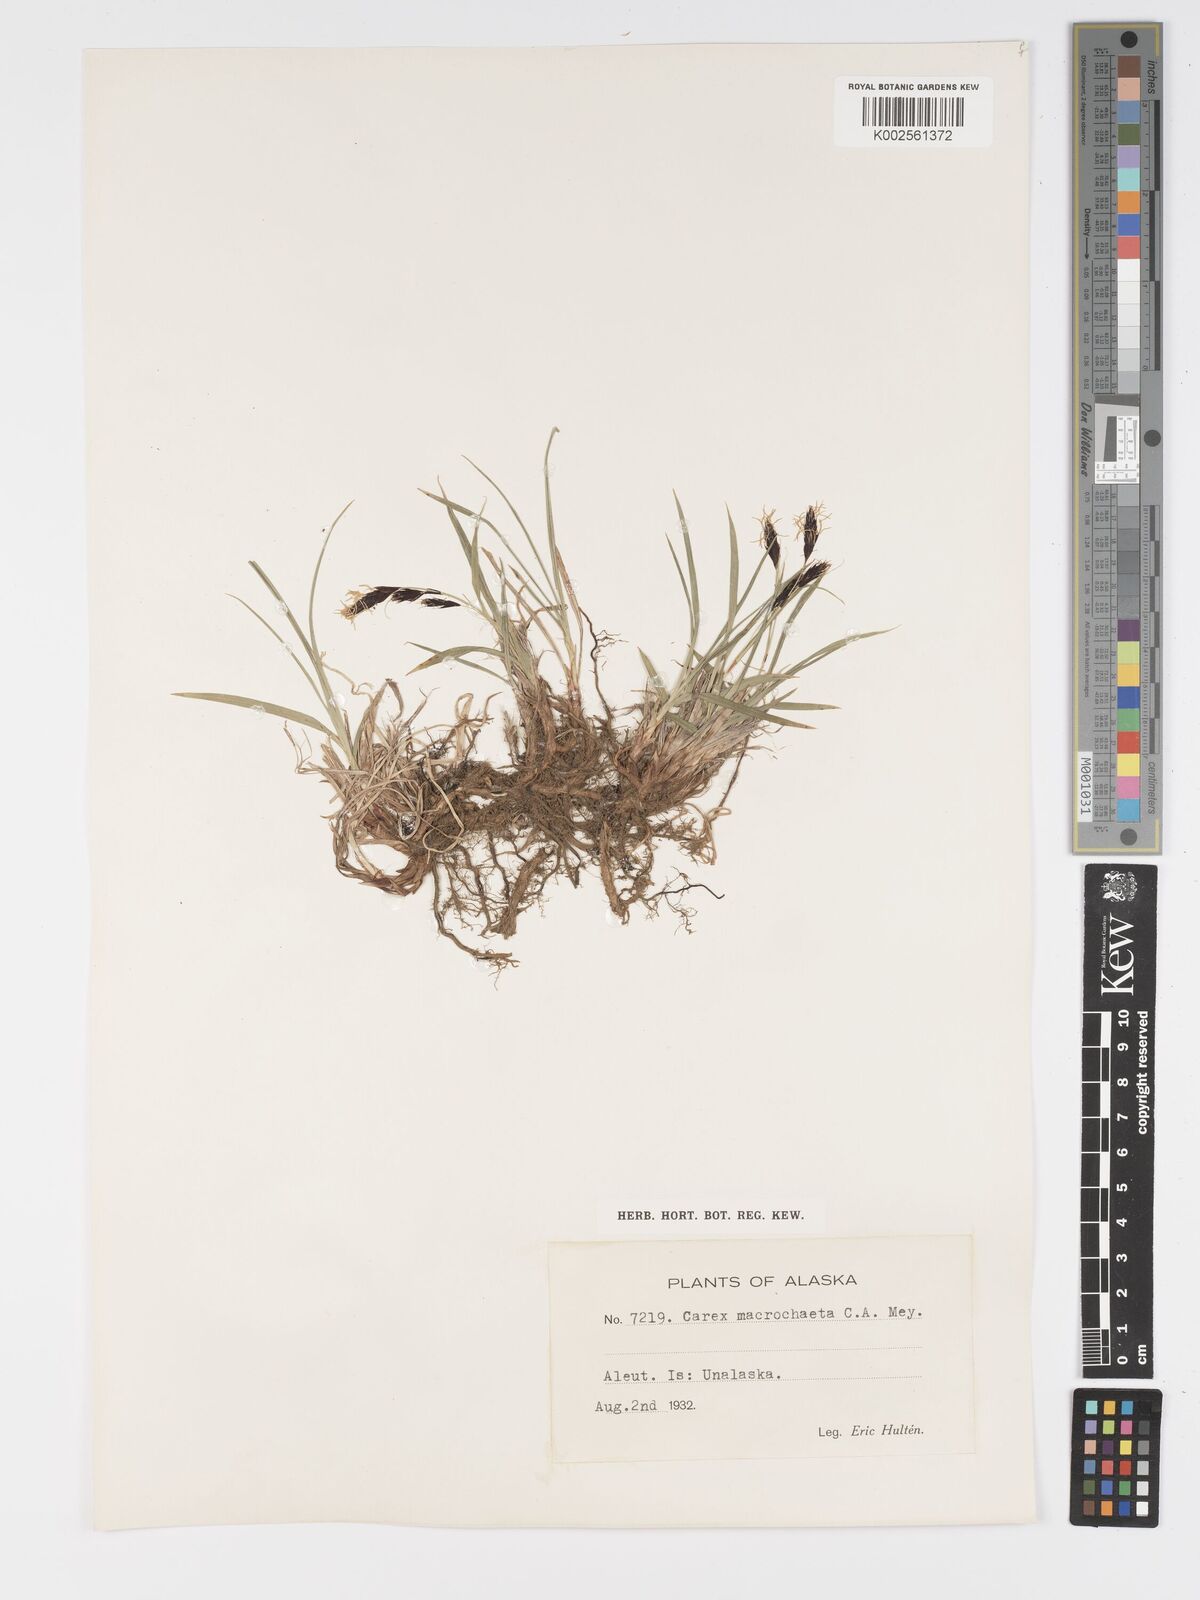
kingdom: Plantae
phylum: Tracheophyta
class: Liliopsida
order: Poales
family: Cyperaceae
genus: Carex
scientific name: Carex macrochaeta
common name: Alaska large awn sedge
